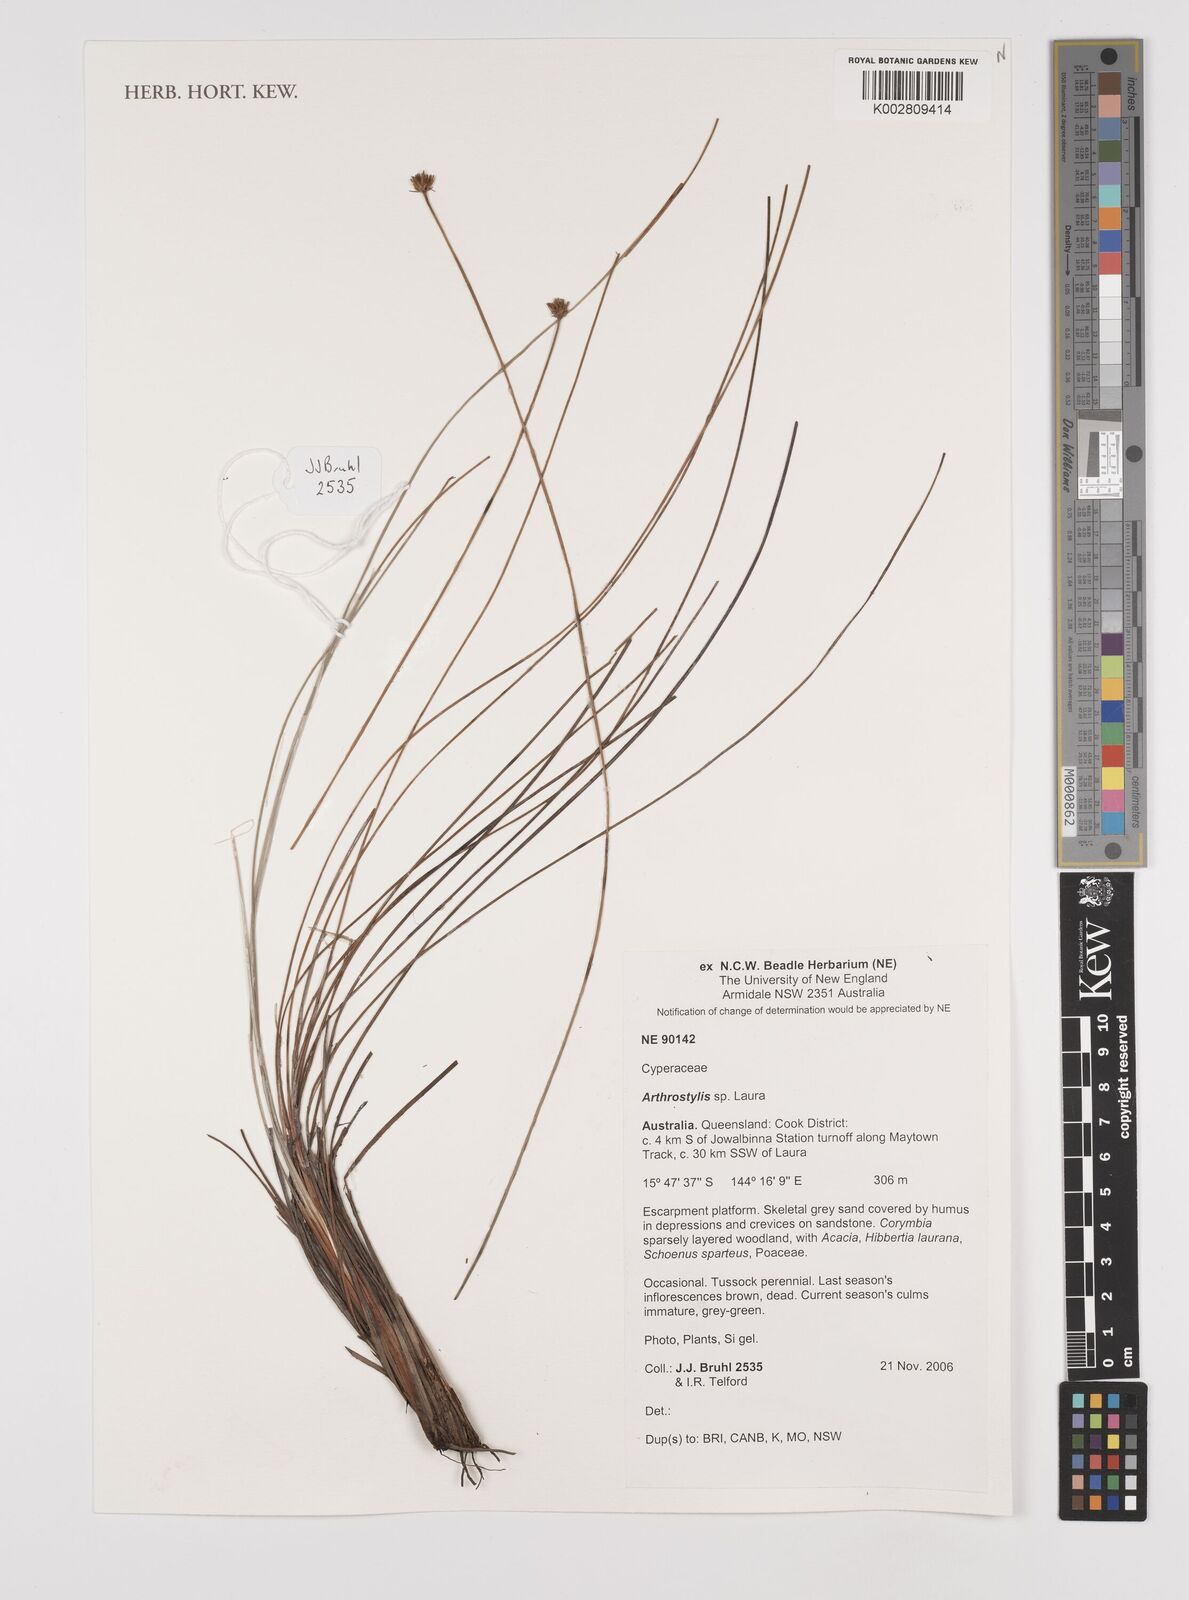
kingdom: Plantae
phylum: Tracheophyta
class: Liliopsida
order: Poales
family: Cyperaceae
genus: Schoenus
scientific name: Schoenus kennyi
